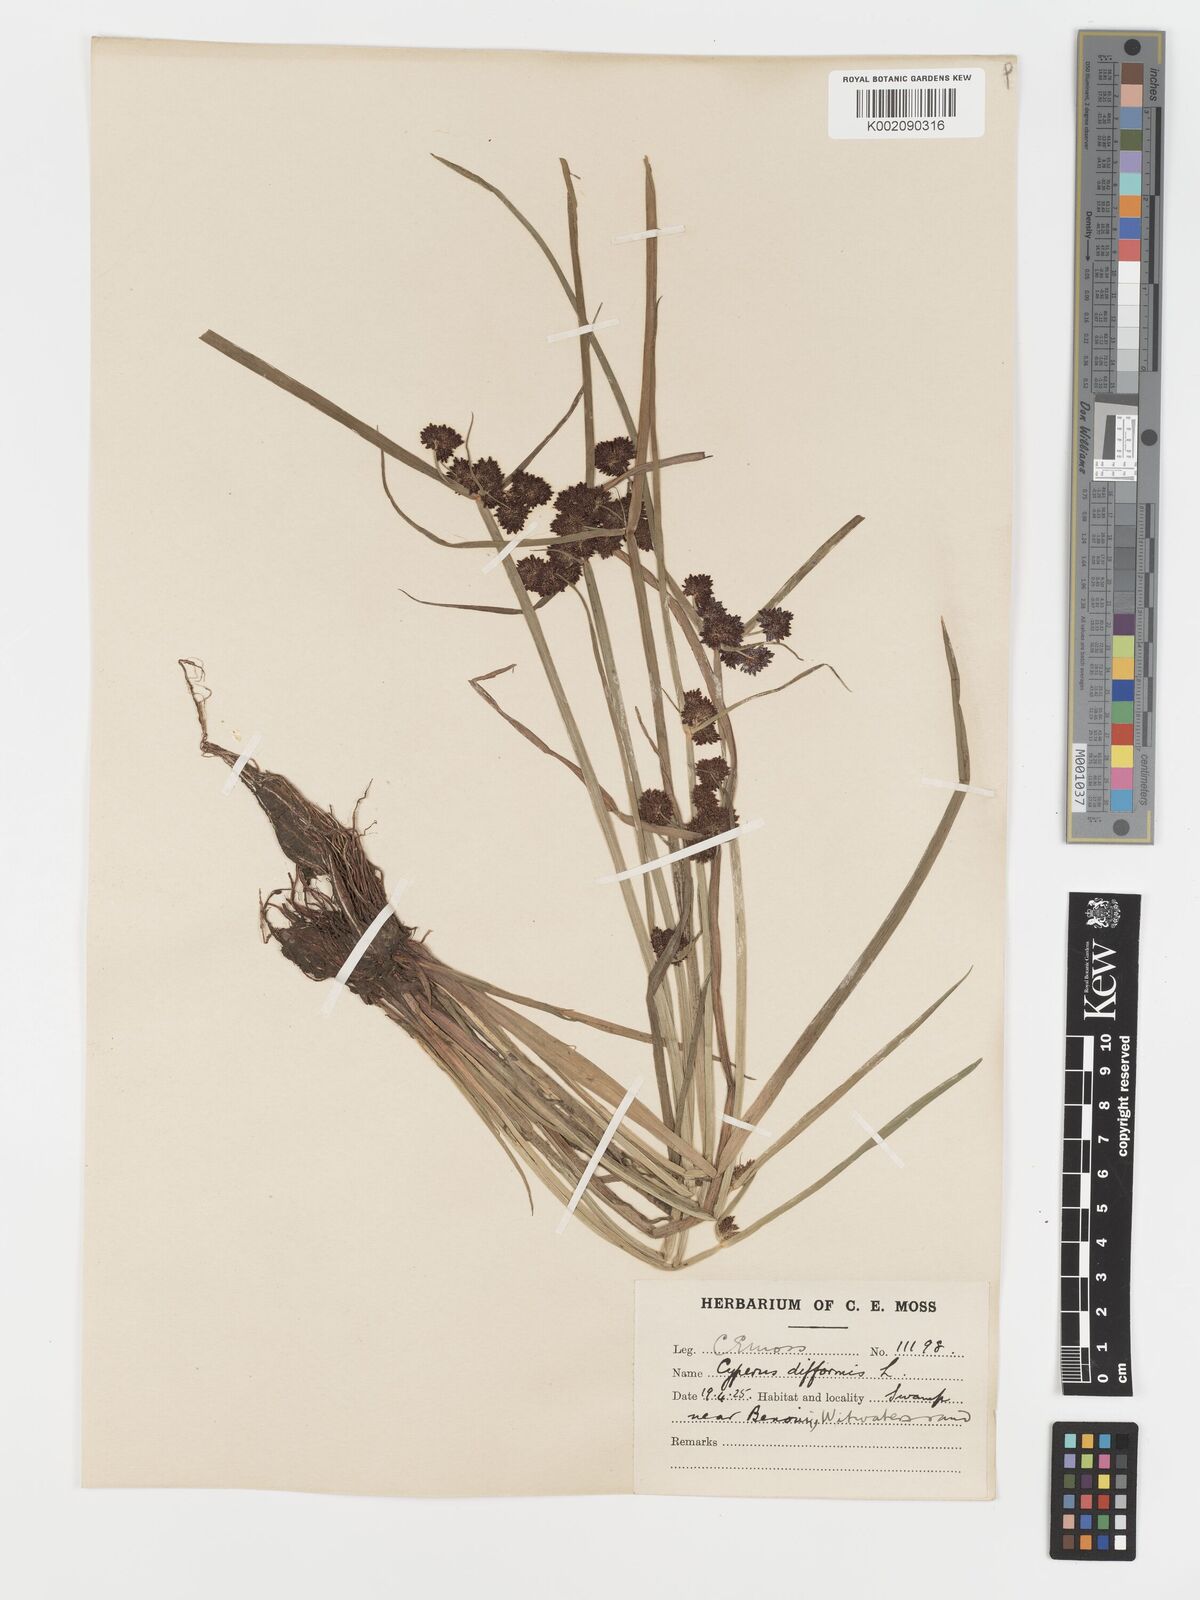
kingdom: Plantae
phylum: Tracheophyta
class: Liliopsida
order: Poales
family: Cyperaceae
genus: Cyperus
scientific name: Cyperus difformis
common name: Variable flatsedge
